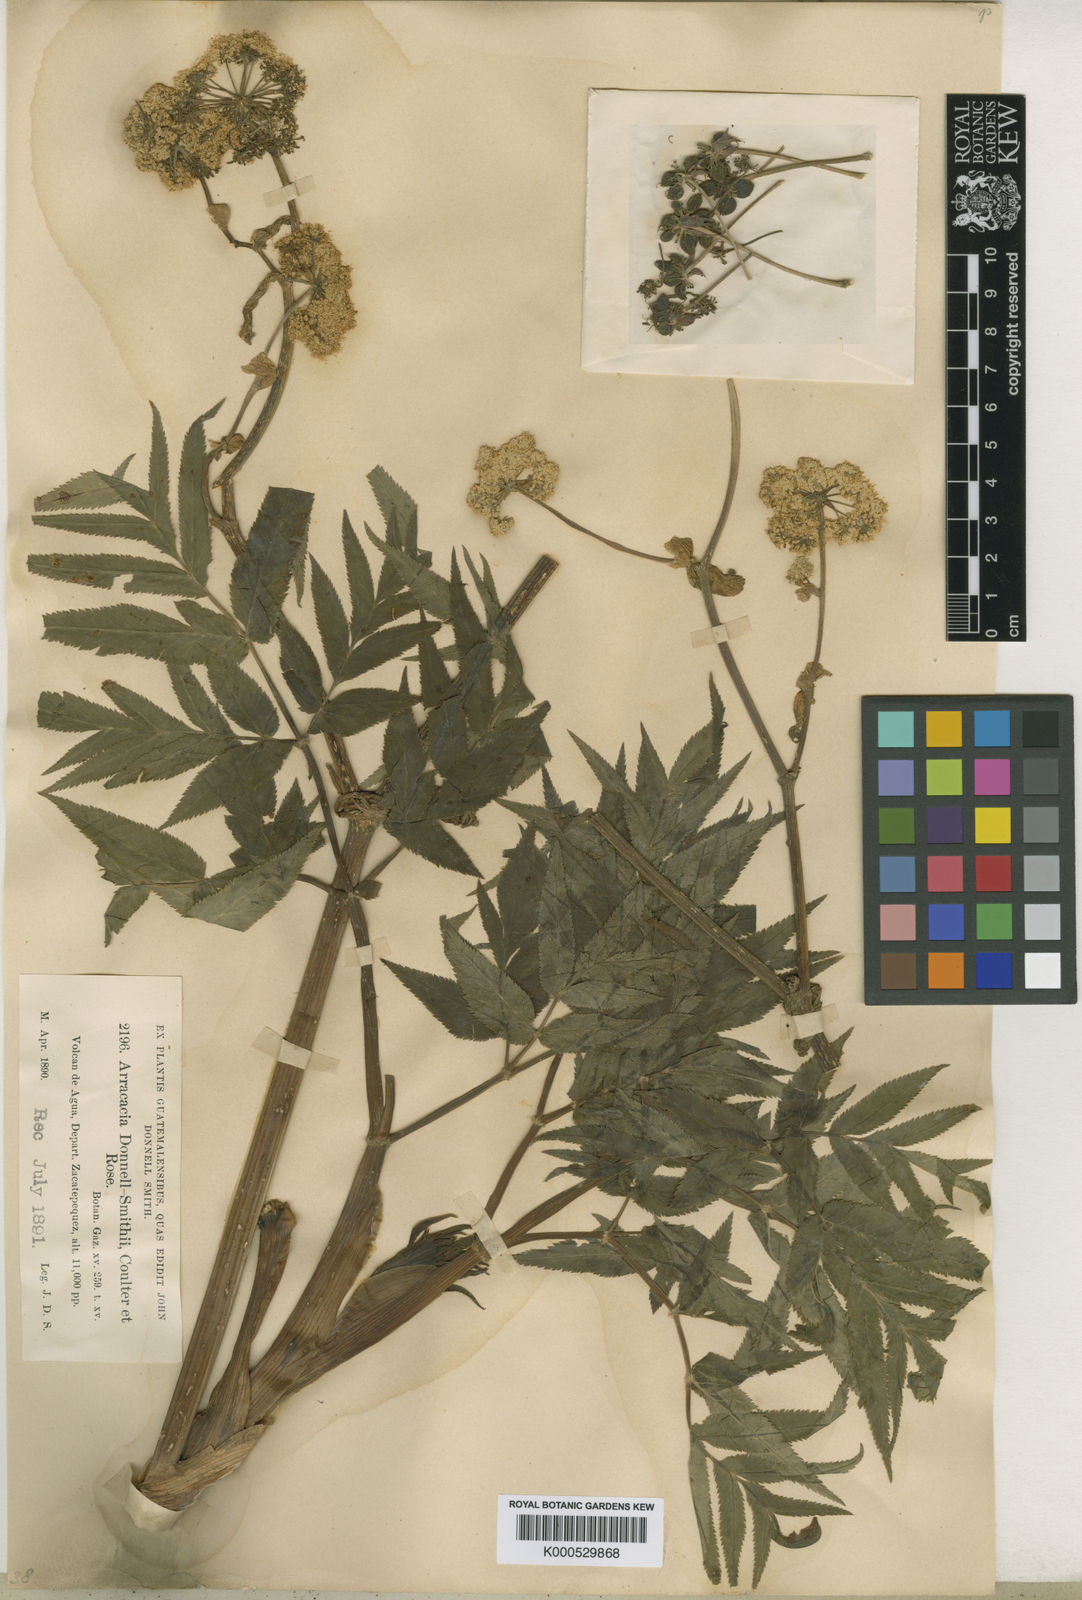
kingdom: Plantae
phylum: Tracheophyta
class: Magnoliopsida
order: Apiales
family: Apiaceae
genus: Arracacia
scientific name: Arracacia donnell-smithii
